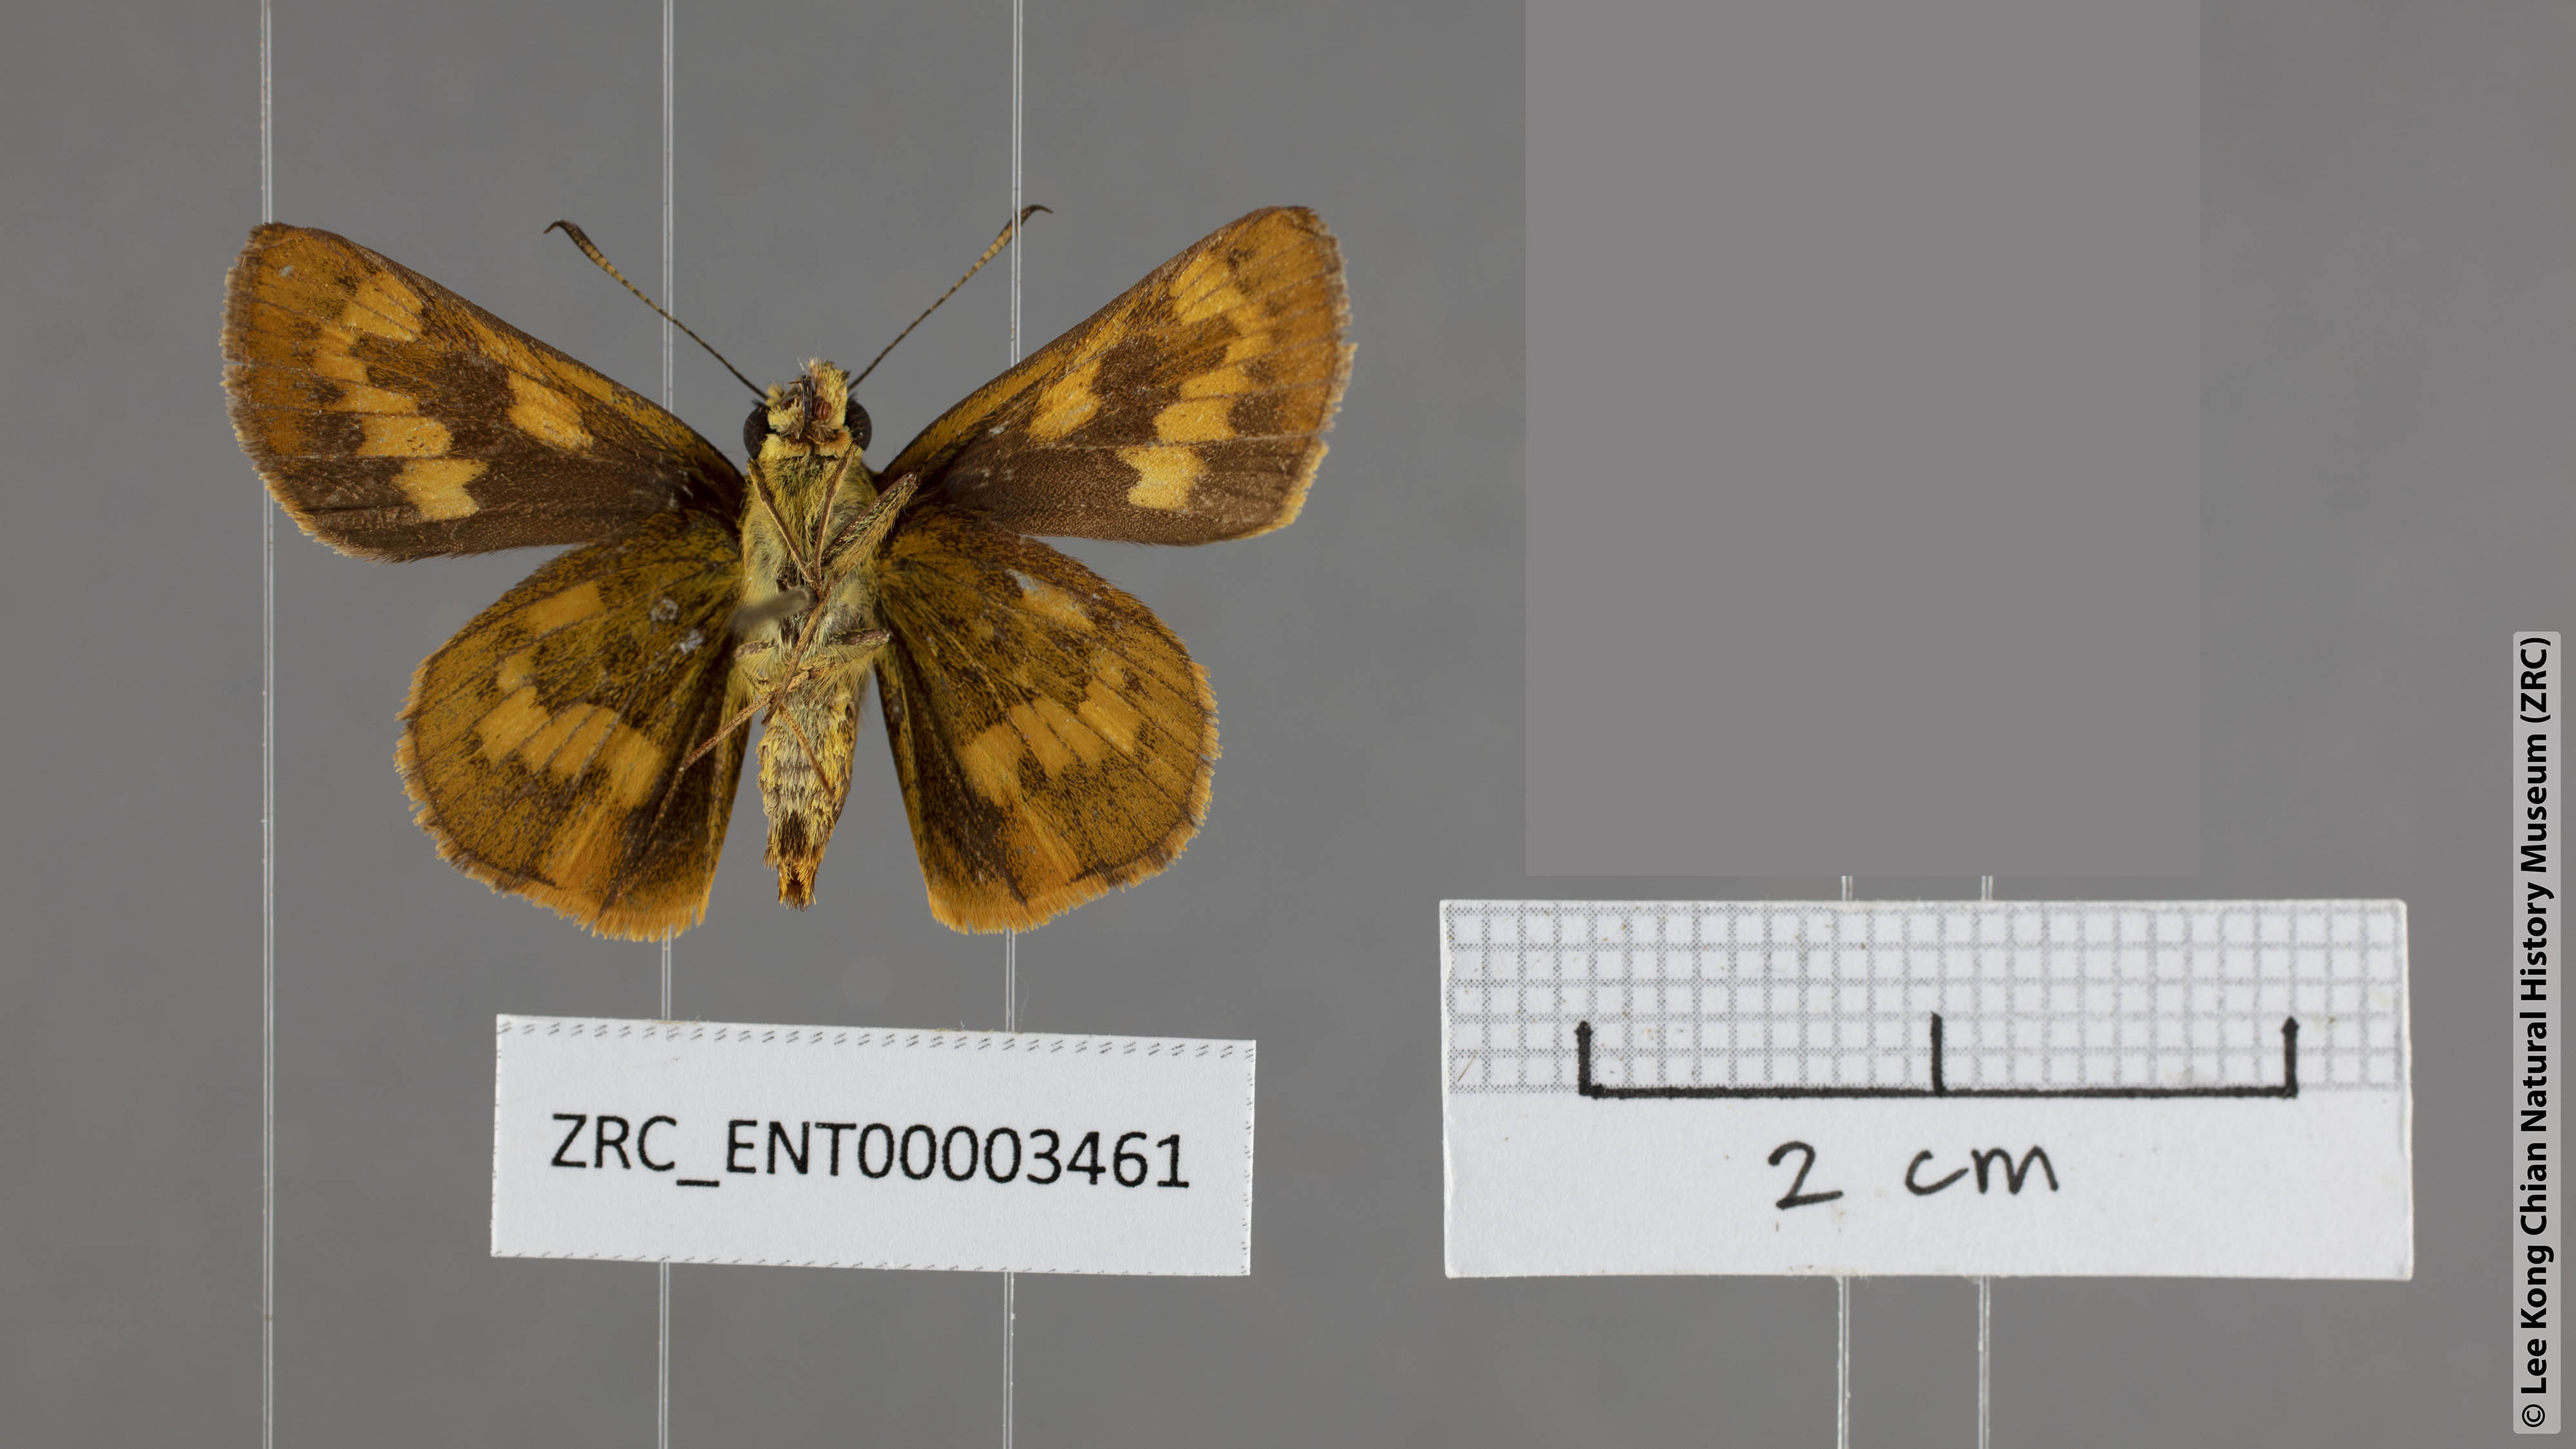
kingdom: Animalia
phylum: Arthropoda
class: Insecta
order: Lepidoptera
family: Hesperiidae
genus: Potanthus
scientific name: Potanthus flava
